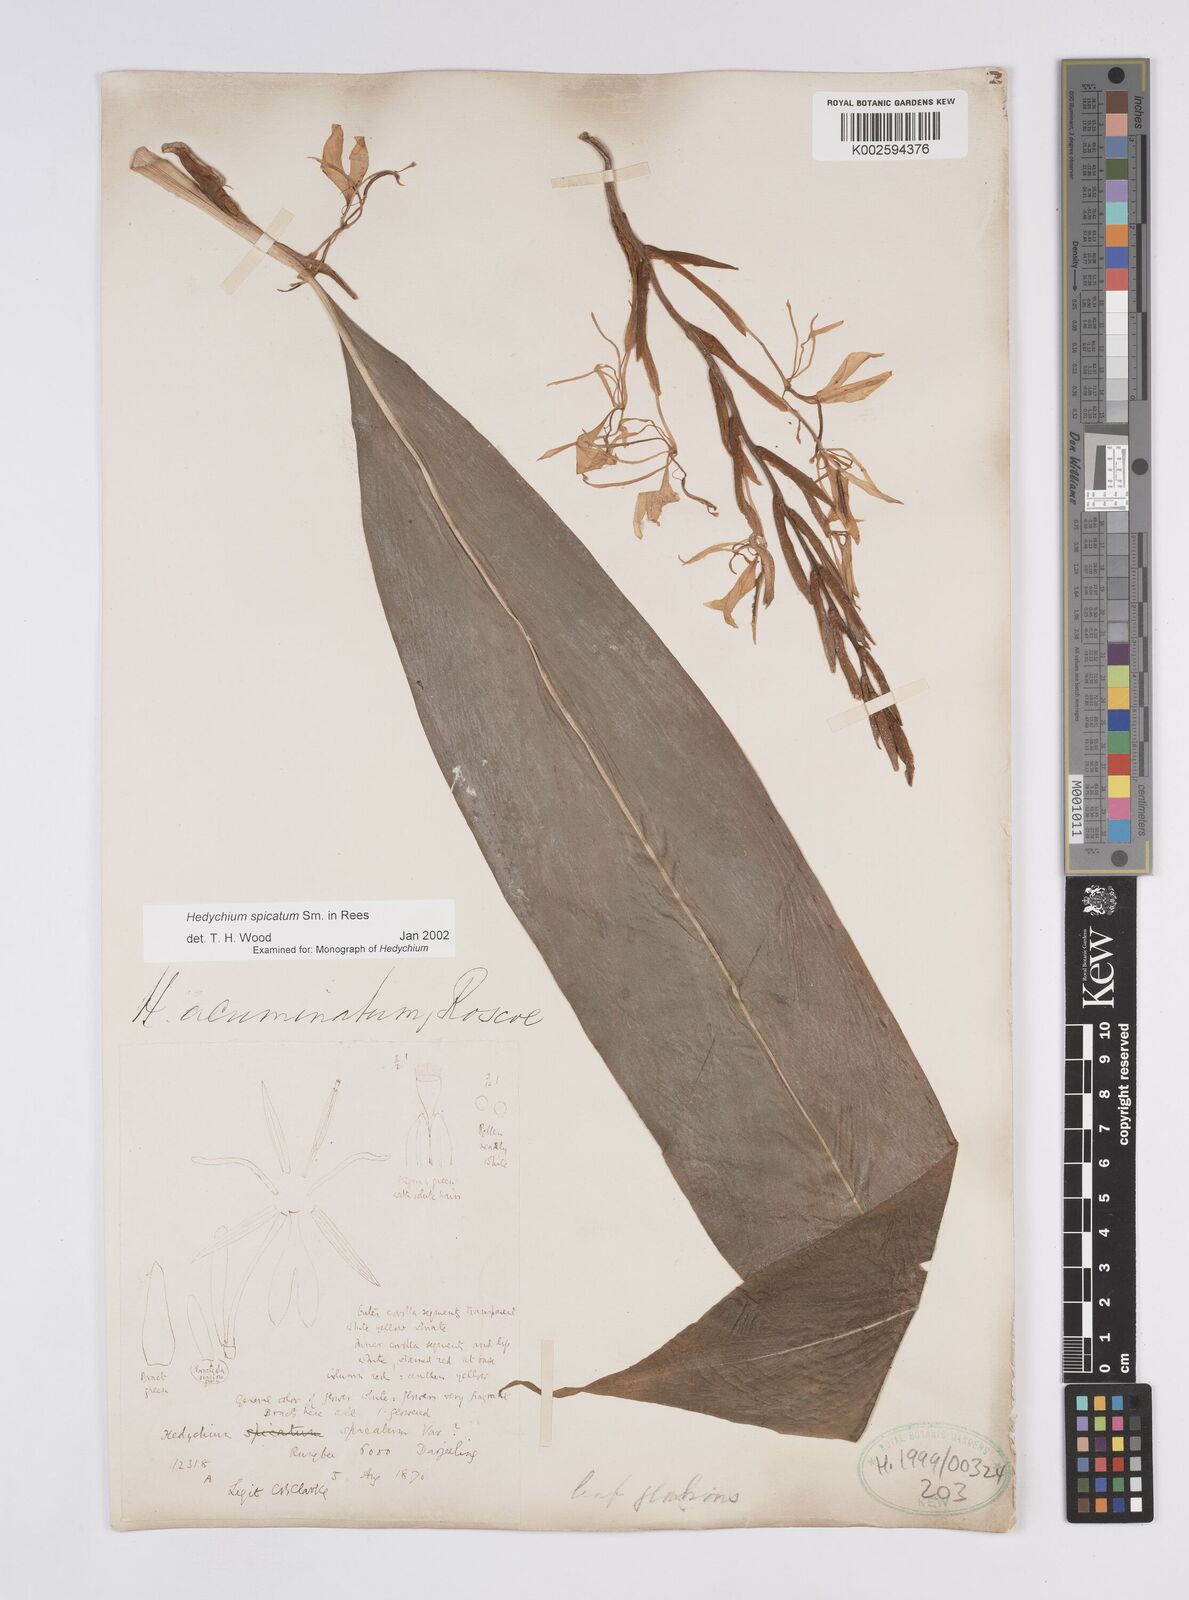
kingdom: Plantae
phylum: Tracheophyta
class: Liliopsida
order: Zingiberales
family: Zingiberaceae
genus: Hedychium
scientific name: Hedychium spicatum
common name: Spiked ginger-lily
